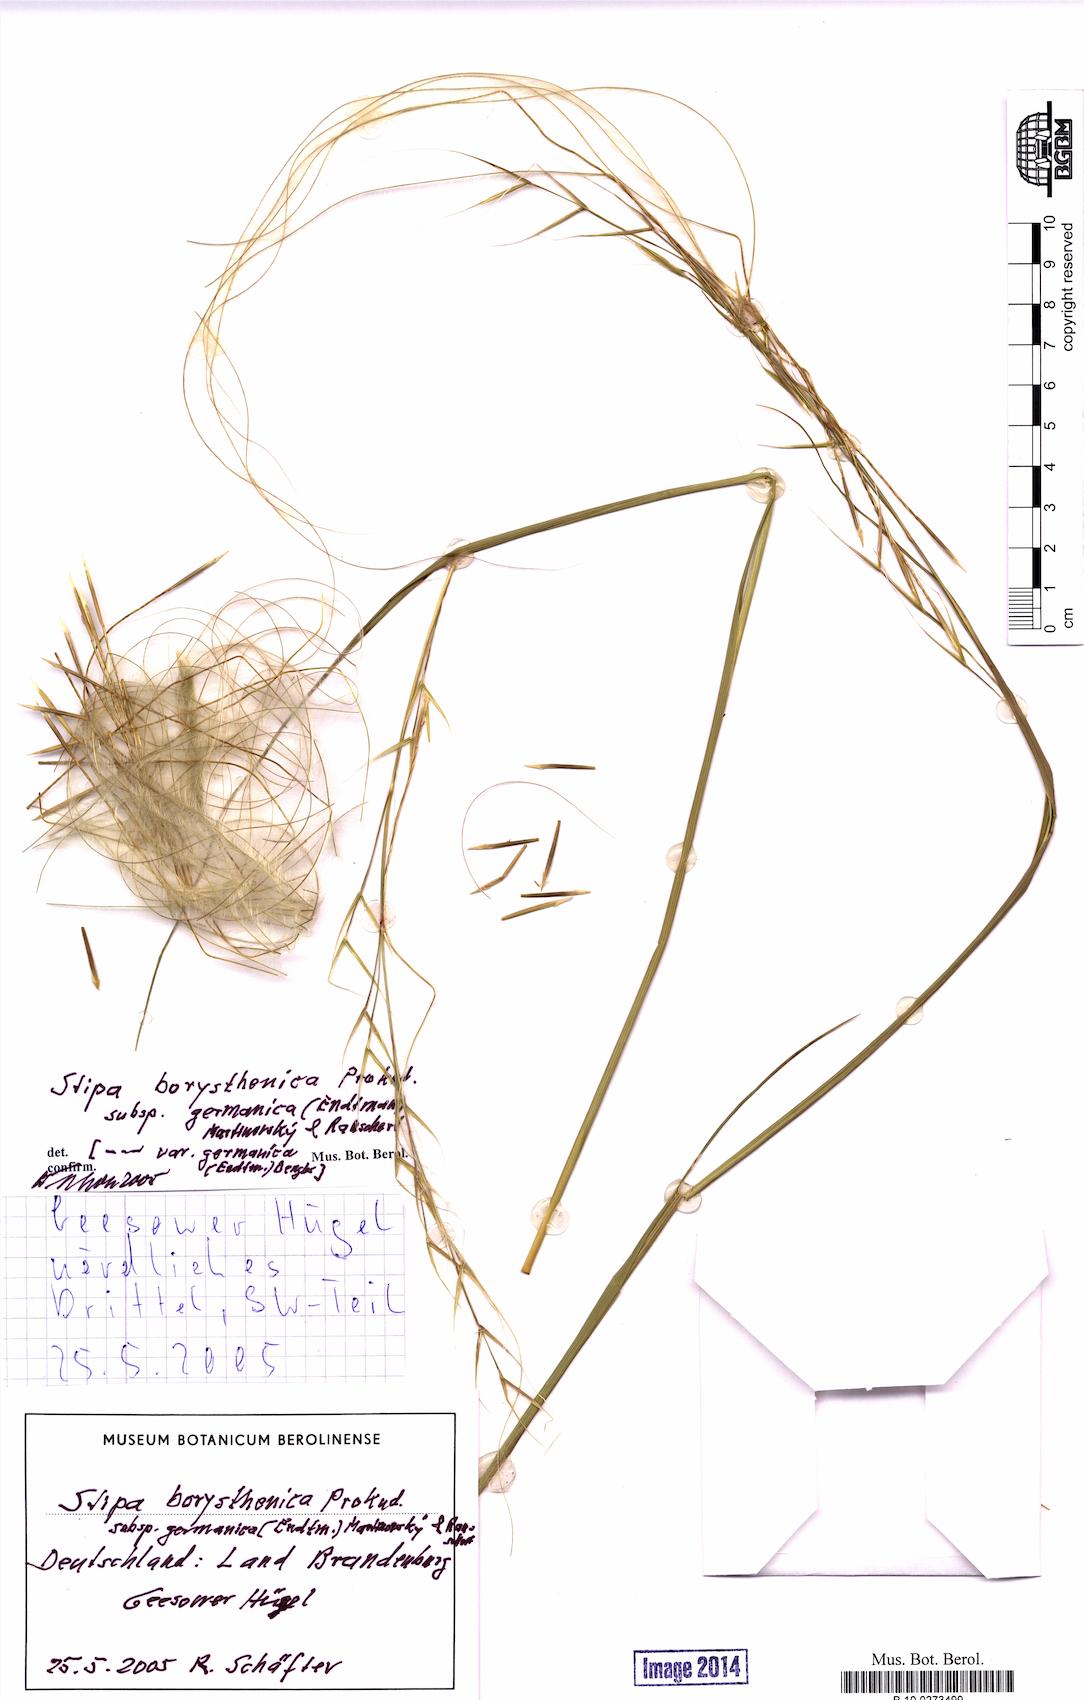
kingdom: Plantae
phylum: Tracheophyta
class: Liliopsida
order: Poales
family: Poaceae
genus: Stipa
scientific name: Stipa borysthenica
